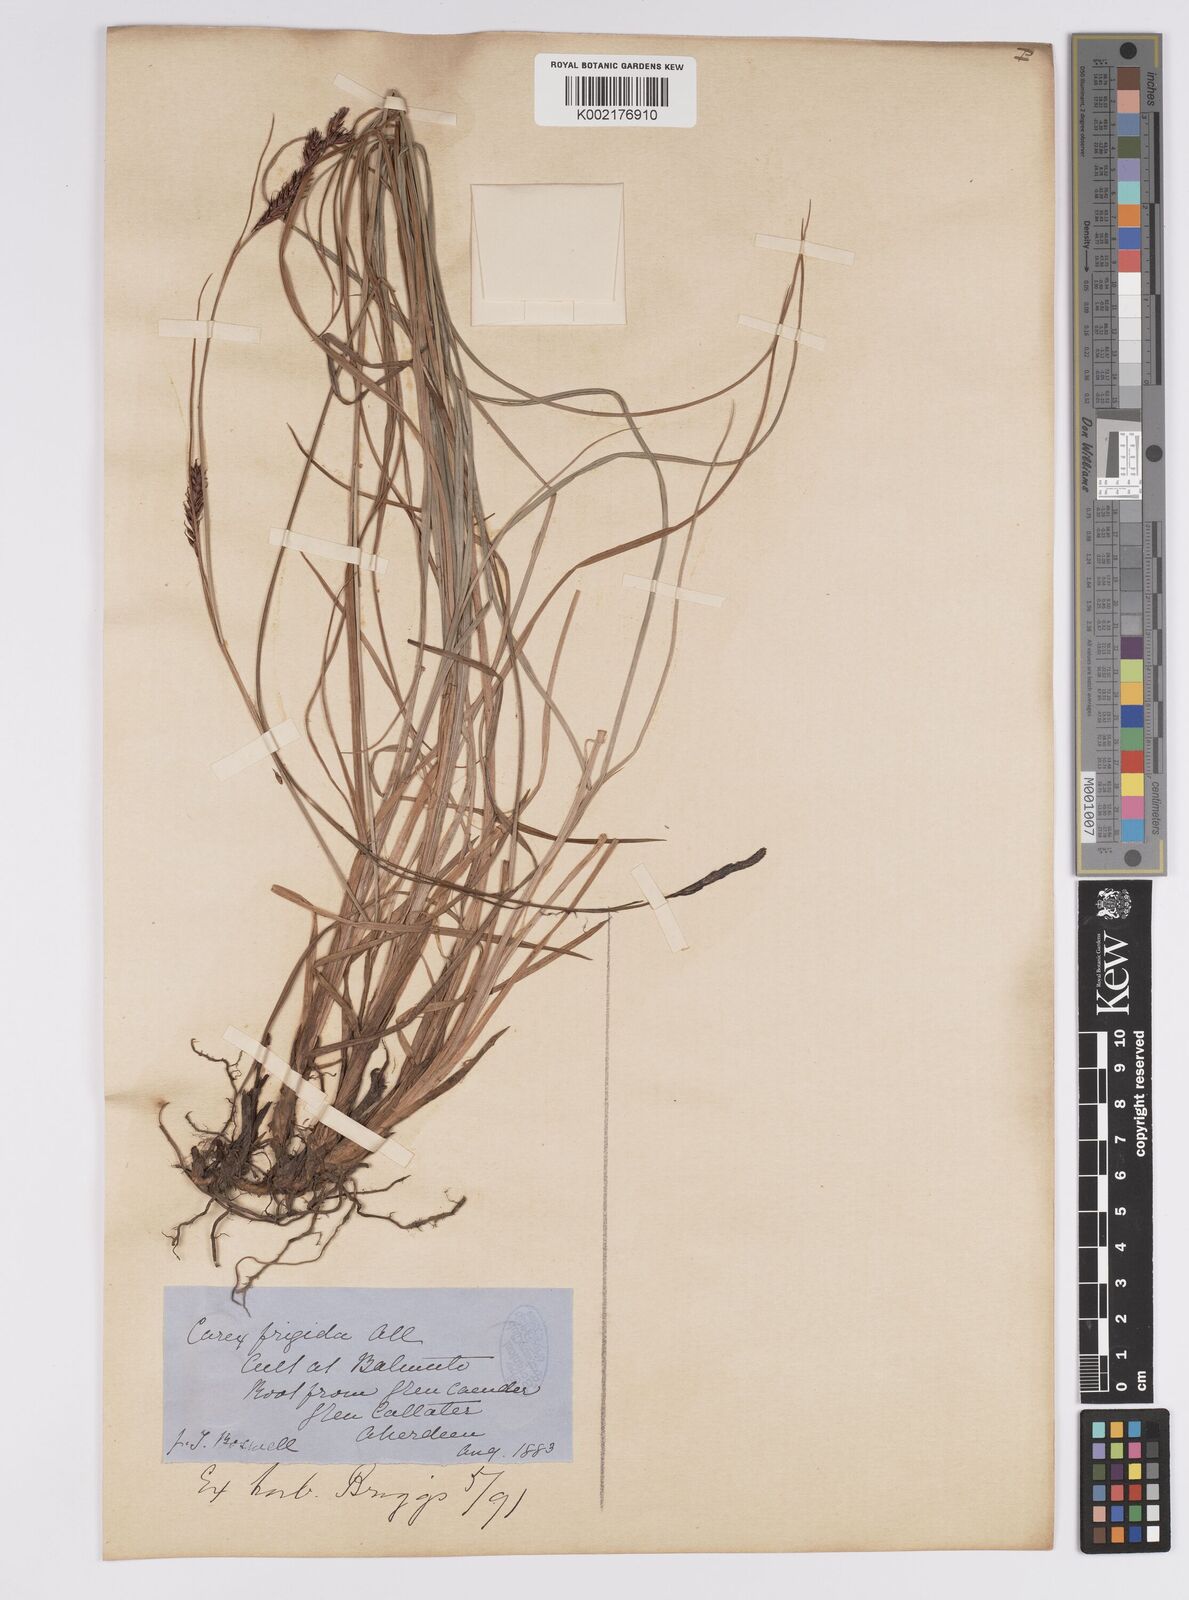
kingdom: Plantae
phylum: Tracheophyta
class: Liliopsida
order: Poales
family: Cyperaceae
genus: Carex
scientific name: Carex
